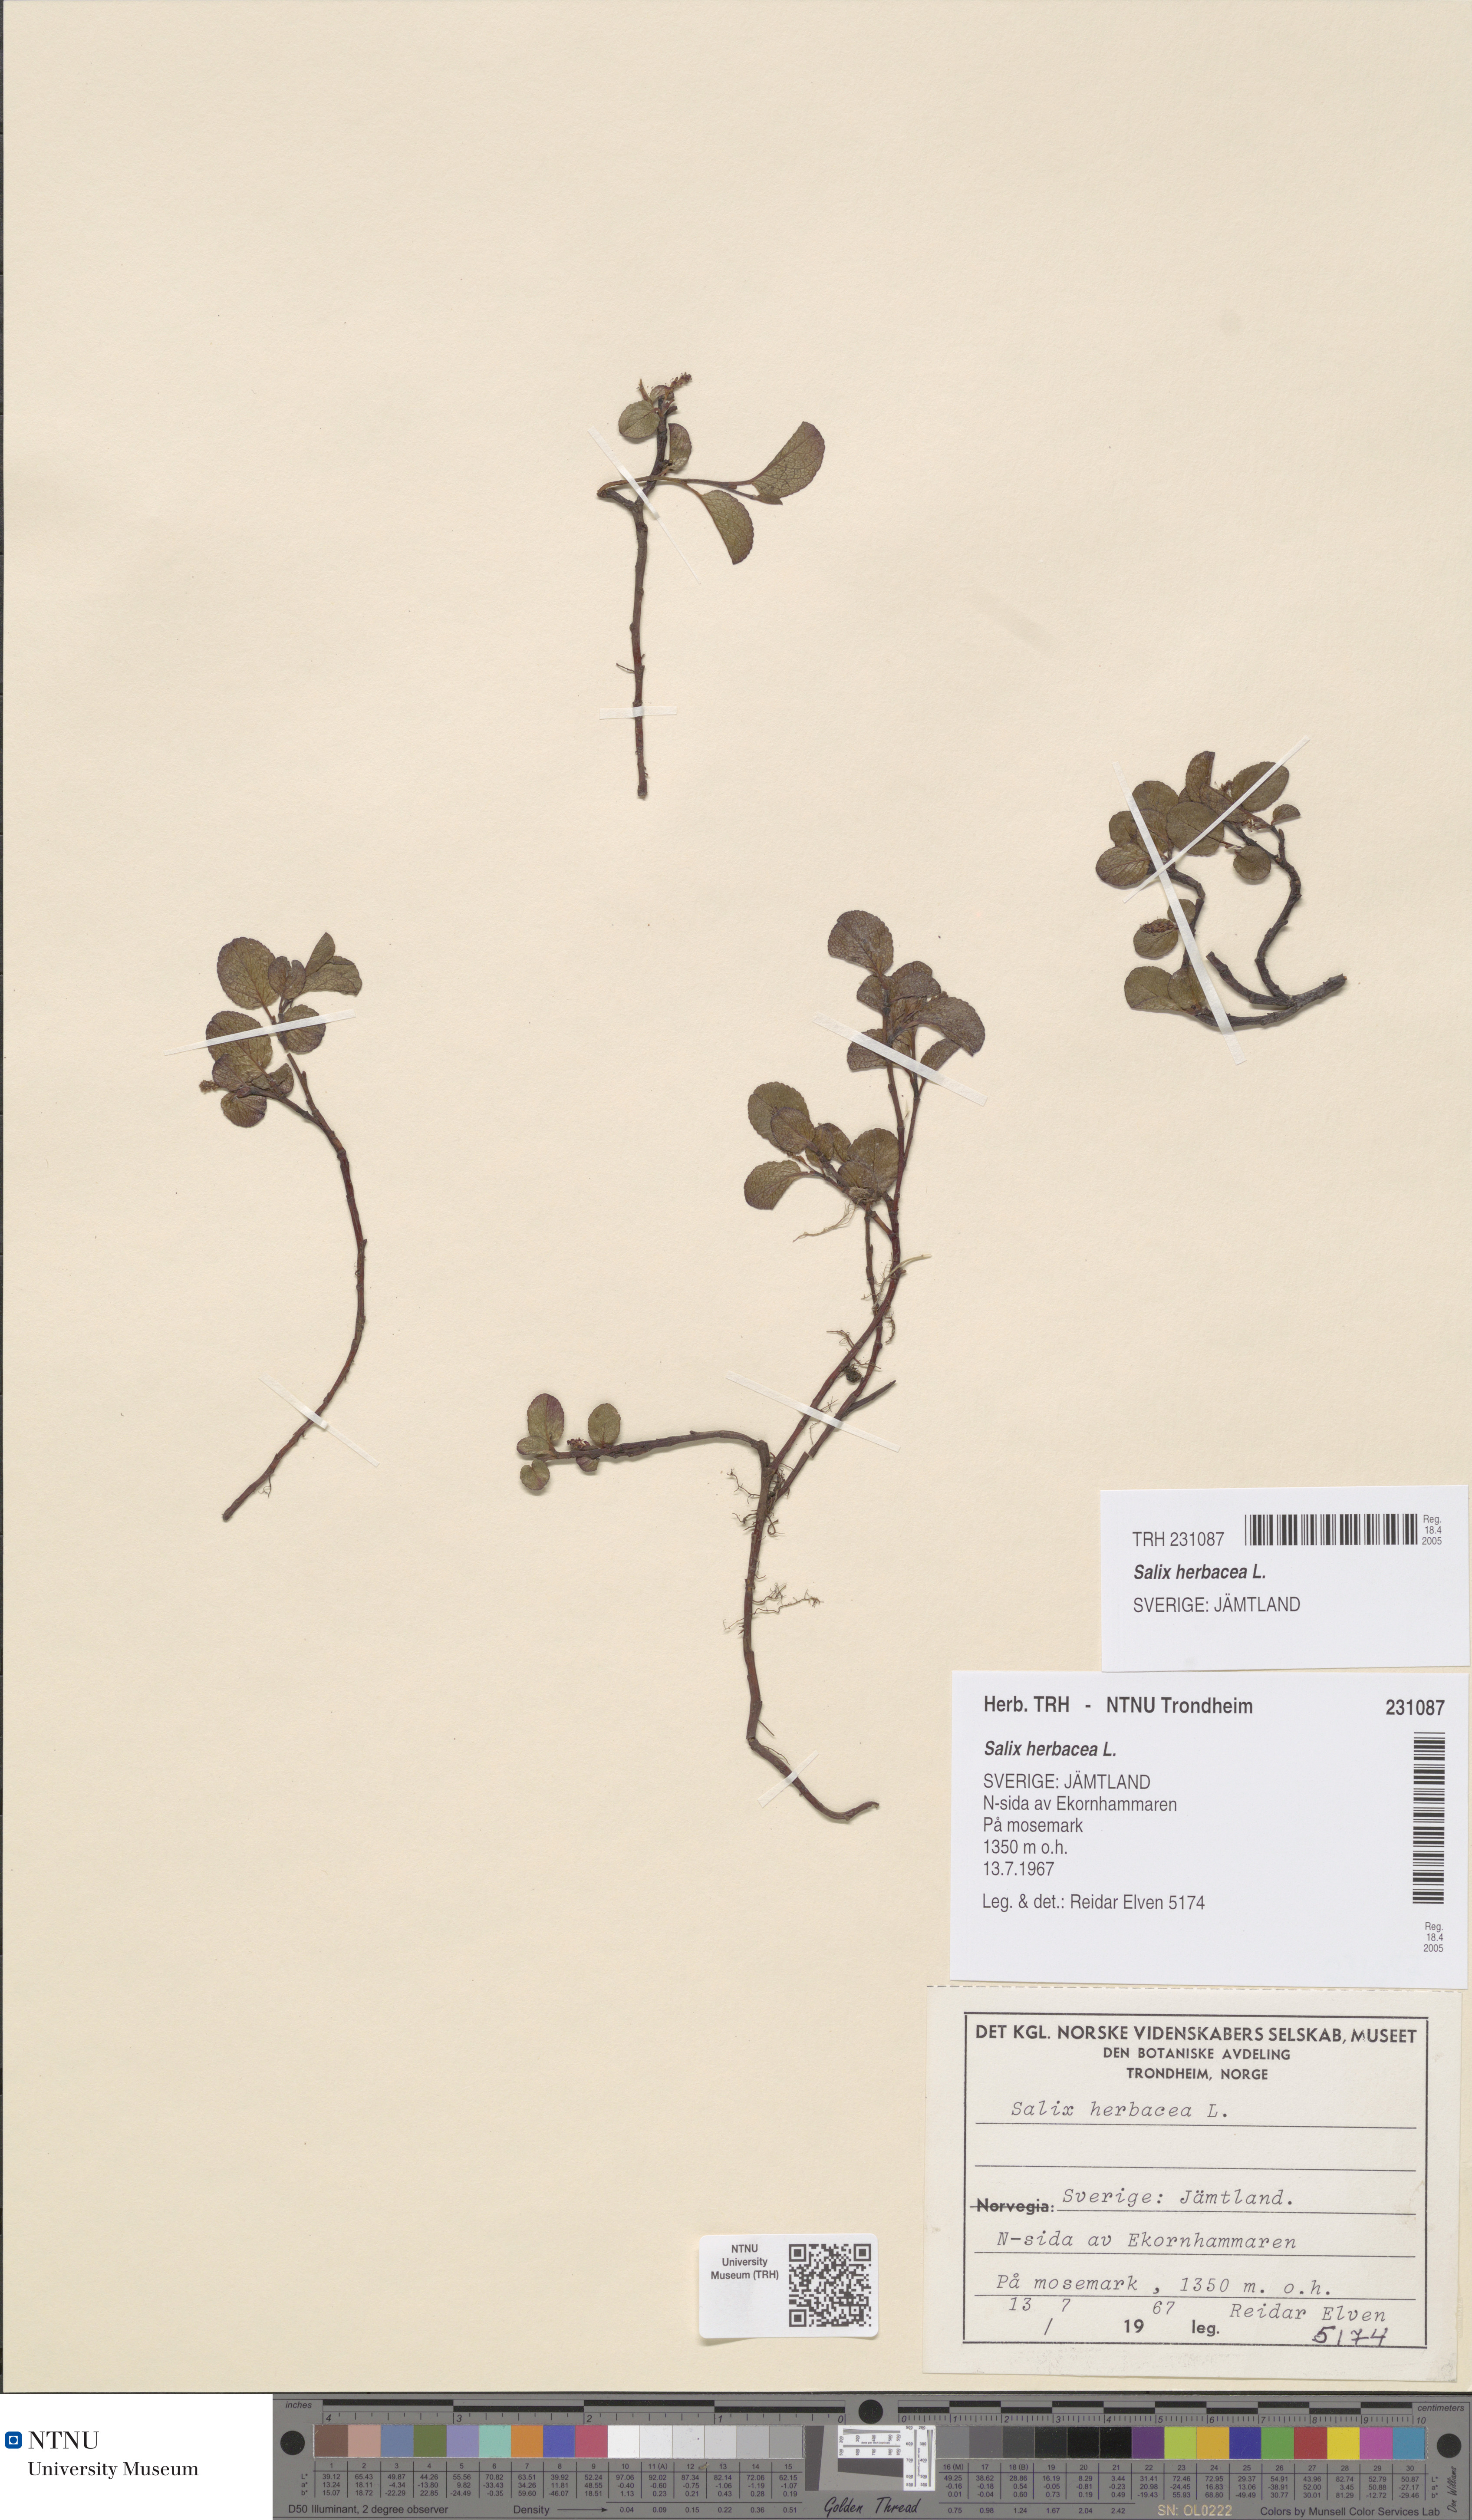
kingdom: Plantae
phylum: Tracheophyta
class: Magnoliopsida
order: Malpighiales
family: Salicaceae
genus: Salix
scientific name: Salix herbacea
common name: Dwarf willow
